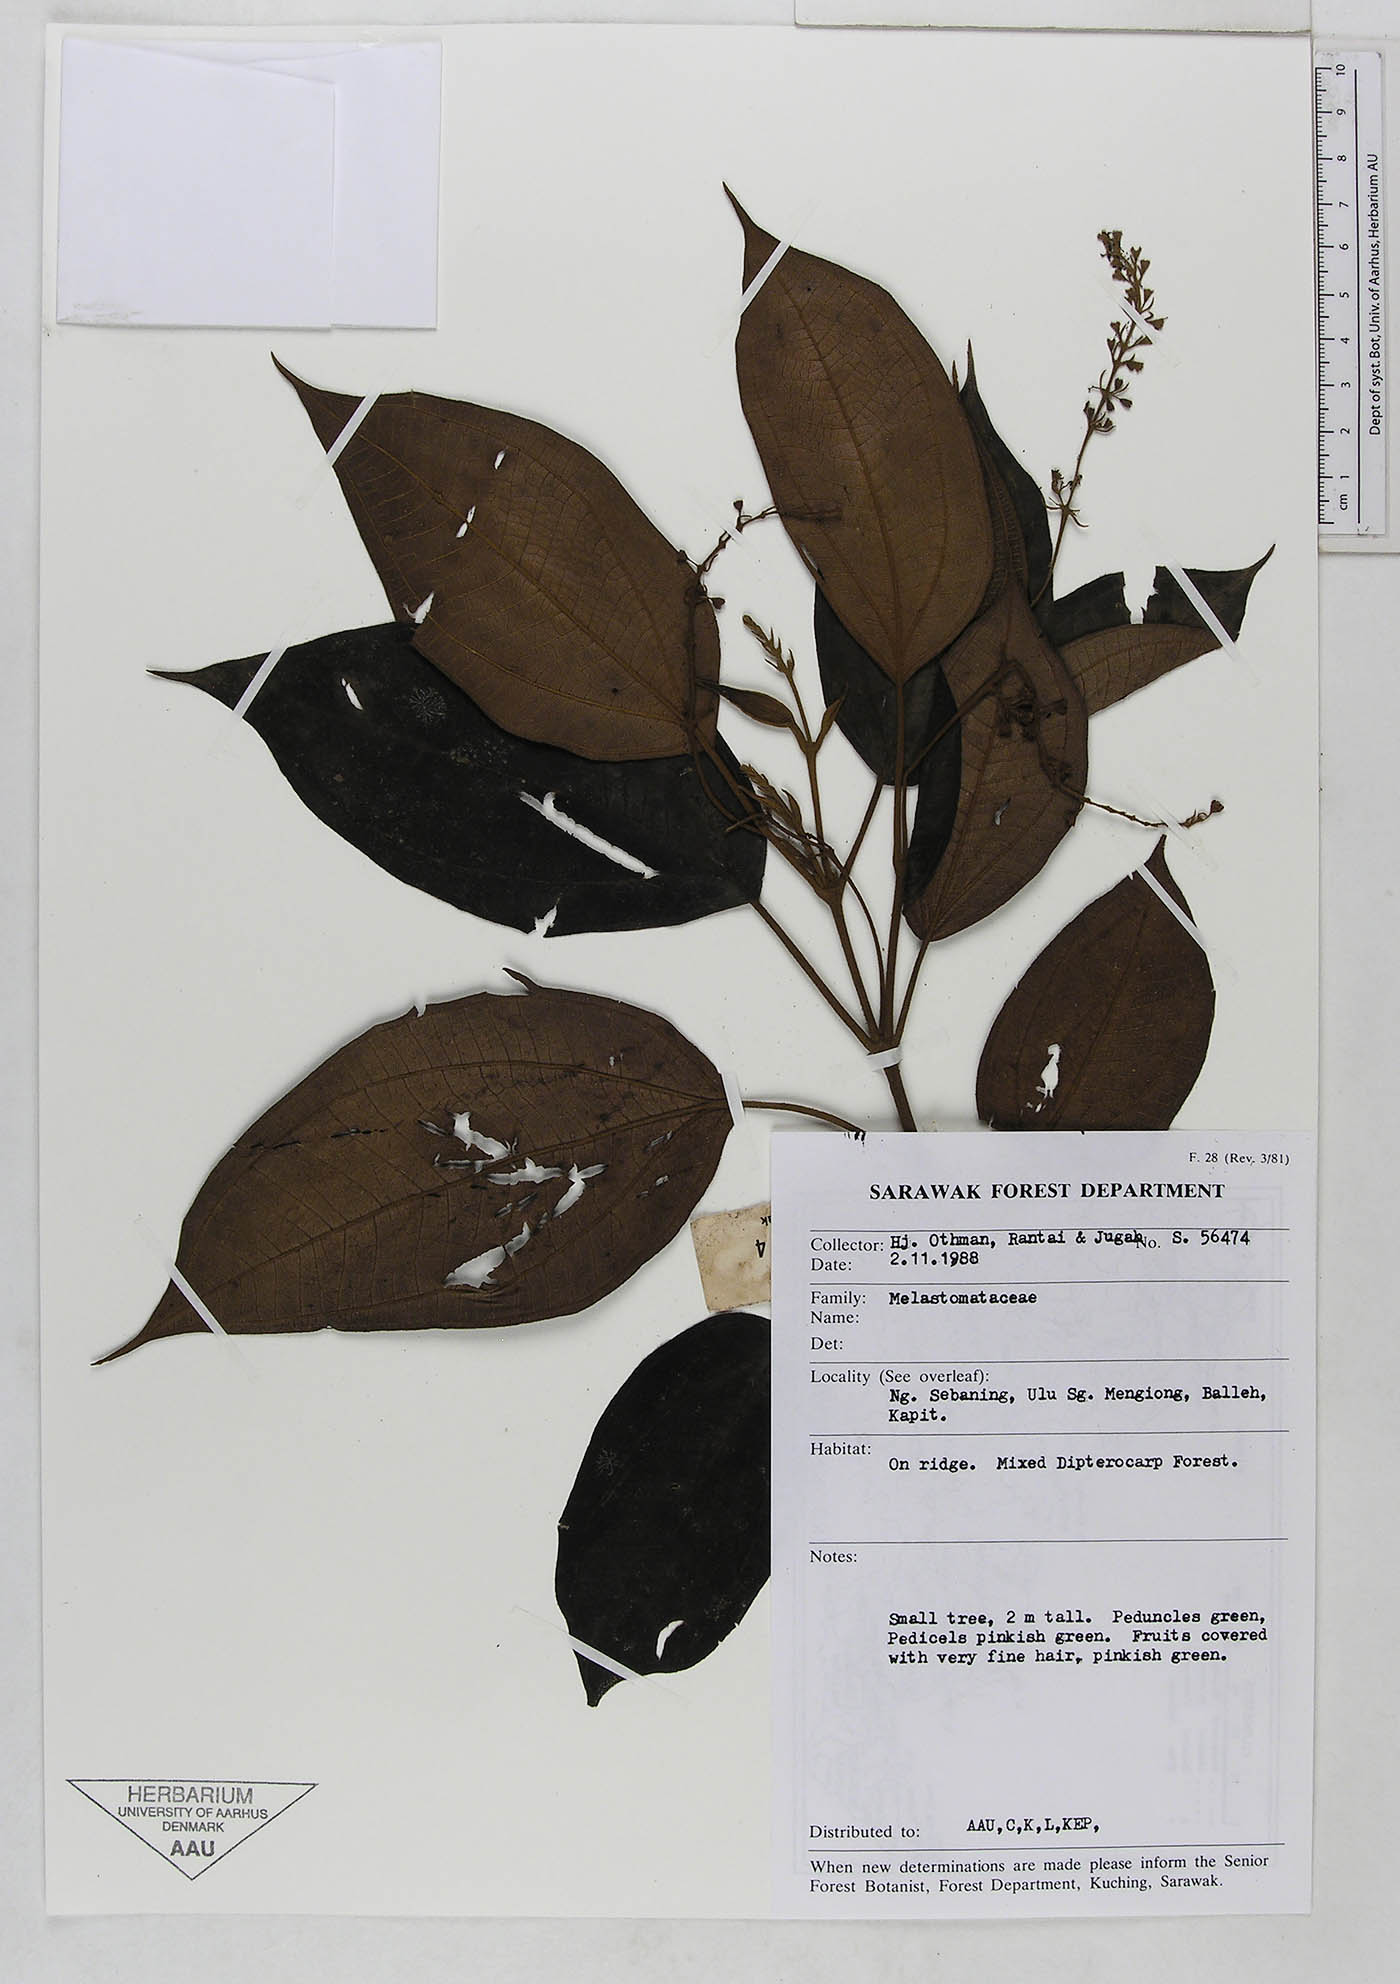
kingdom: Plantae
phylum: Tracheophyta
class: Magnoliopsida
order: Myrtales
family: Melastomataceae
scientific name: Melastomataceae
